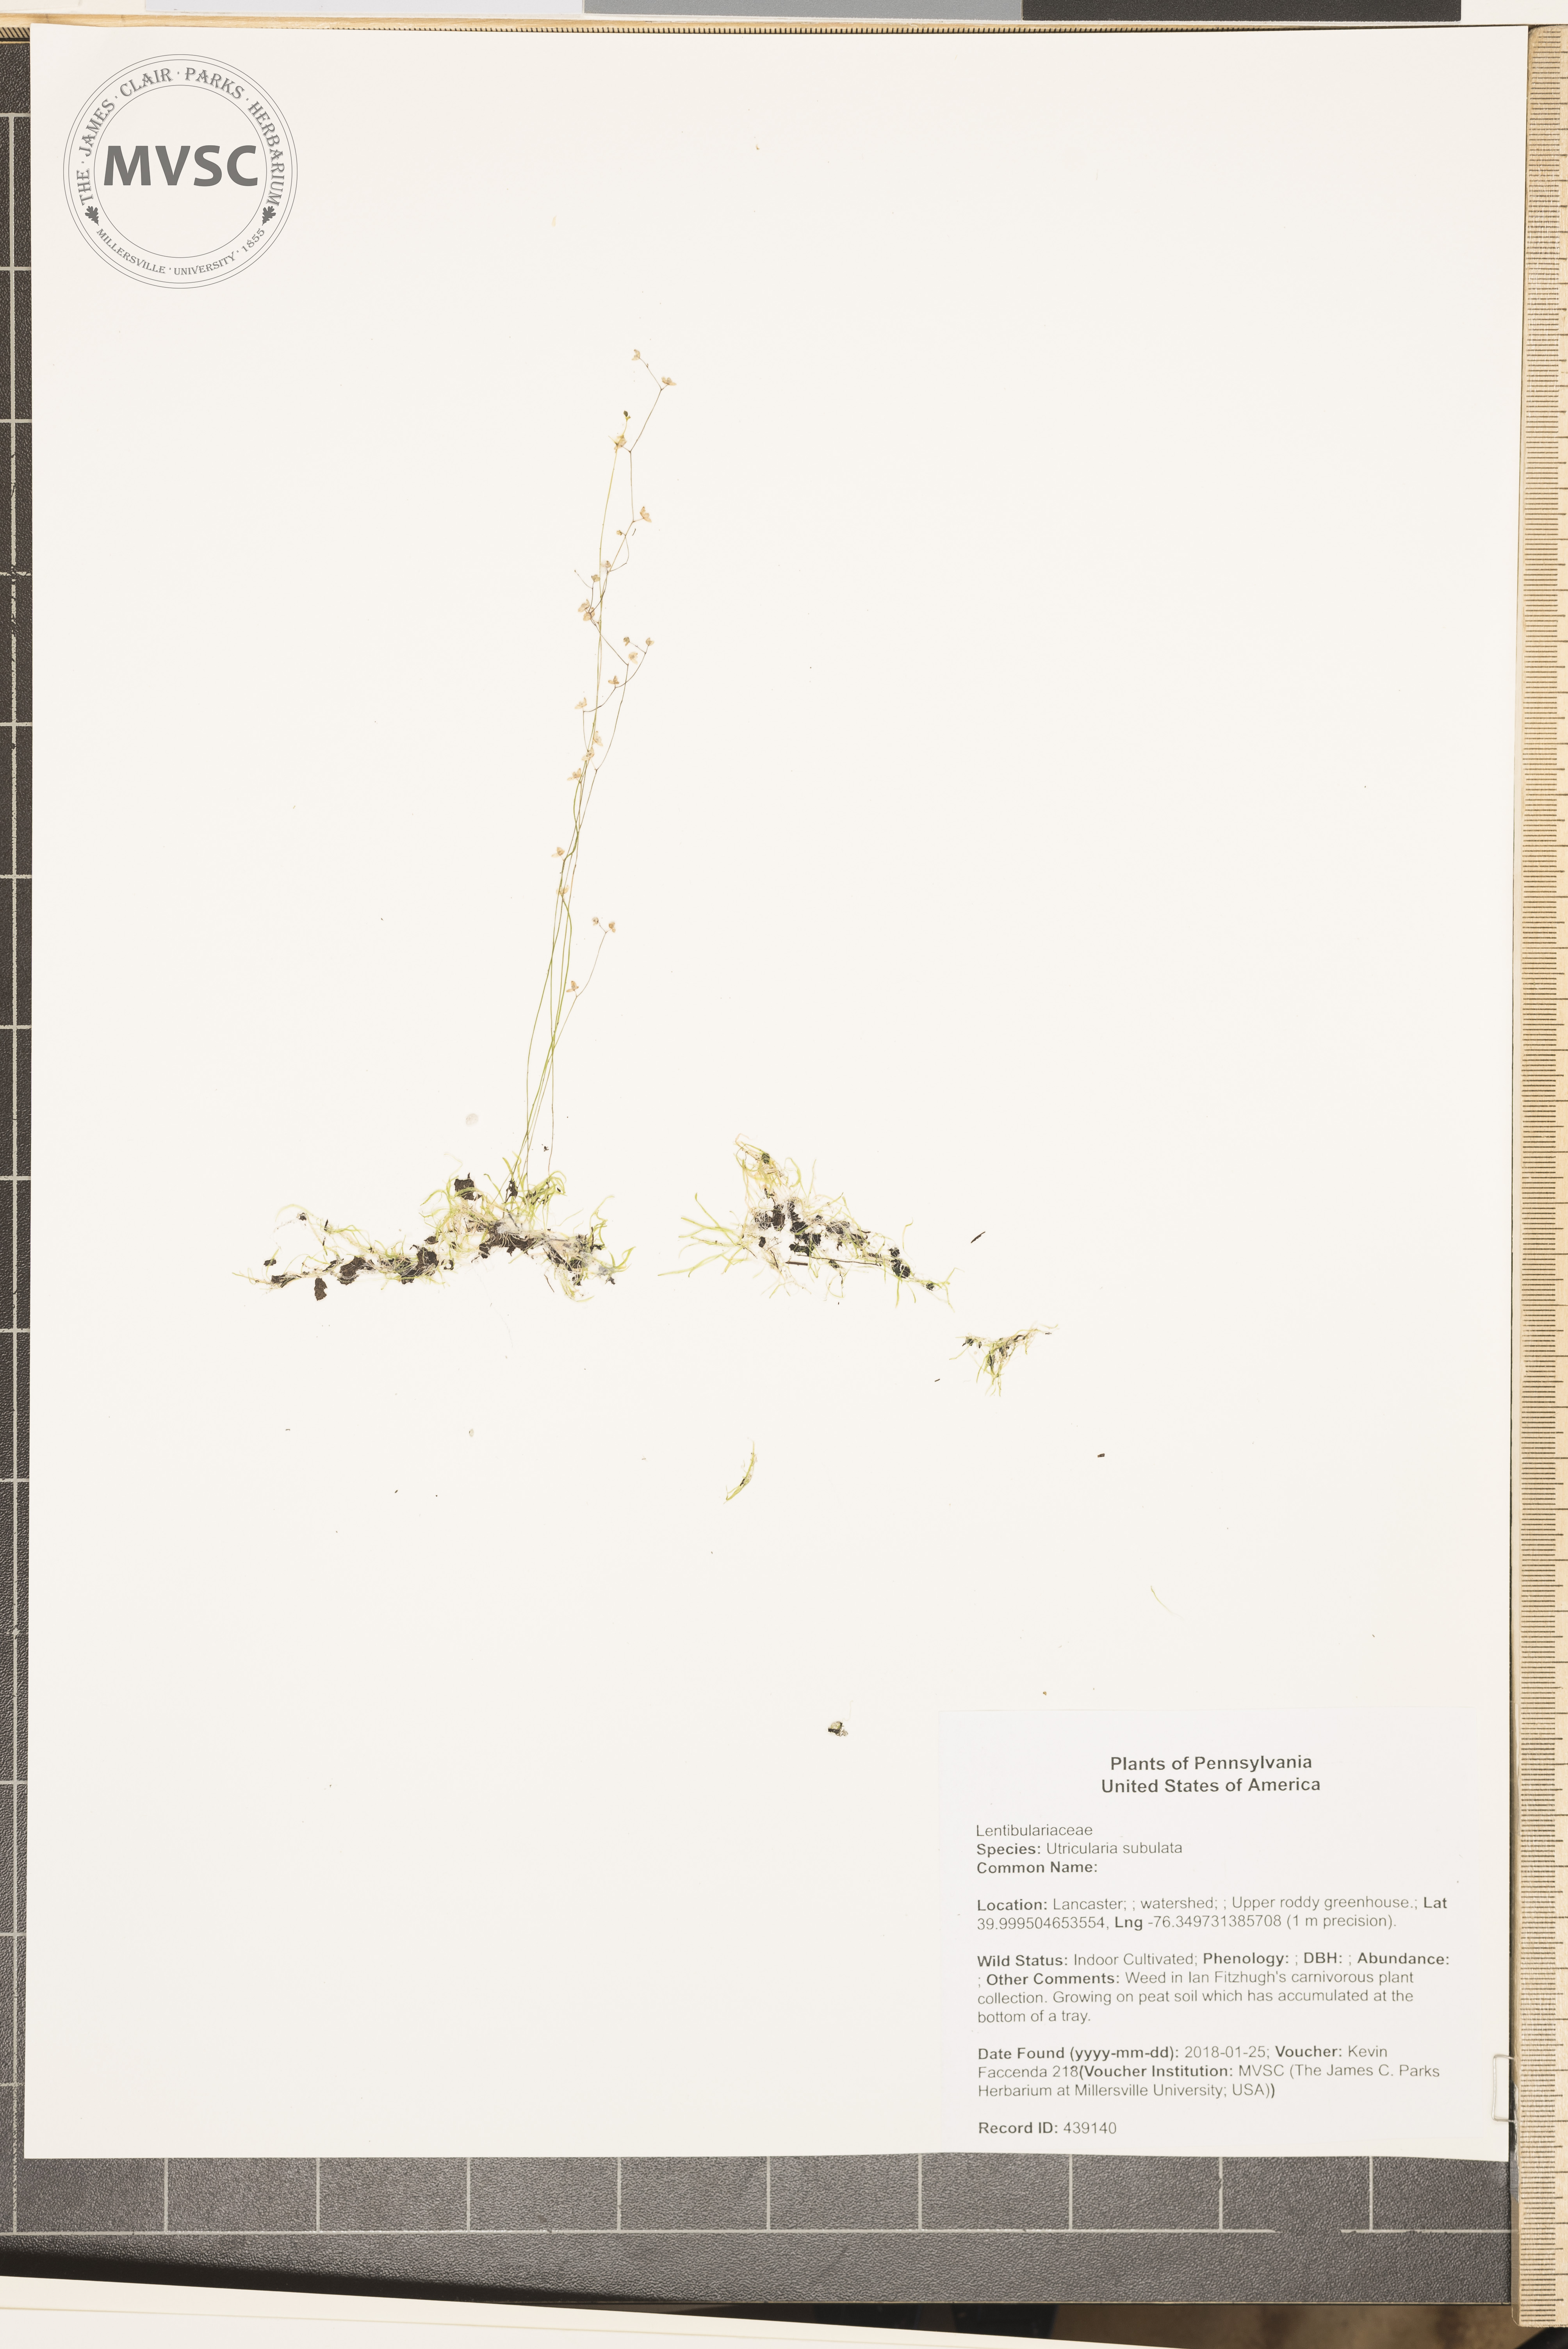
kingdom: Plantae
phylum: Tracheophyta
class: Magnoliopsida
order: Lamiales
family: Lentibulariaceae
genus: Utricularia
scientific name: Utricularia subulata
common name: Tiny bladderwort
